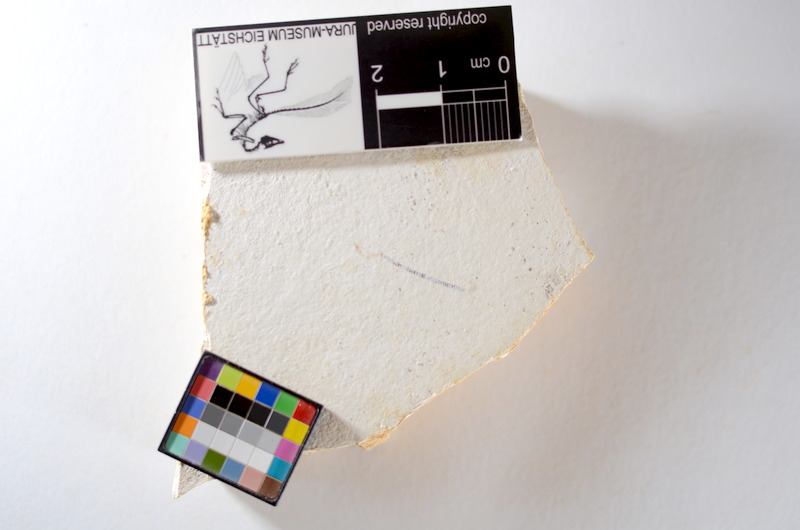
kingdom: Animalia
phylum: Chordata
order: Salmoniformes
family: Orthogonikleithridae
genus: Orthogonikleithrus
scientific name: Orthogonikleithrus hoelli
